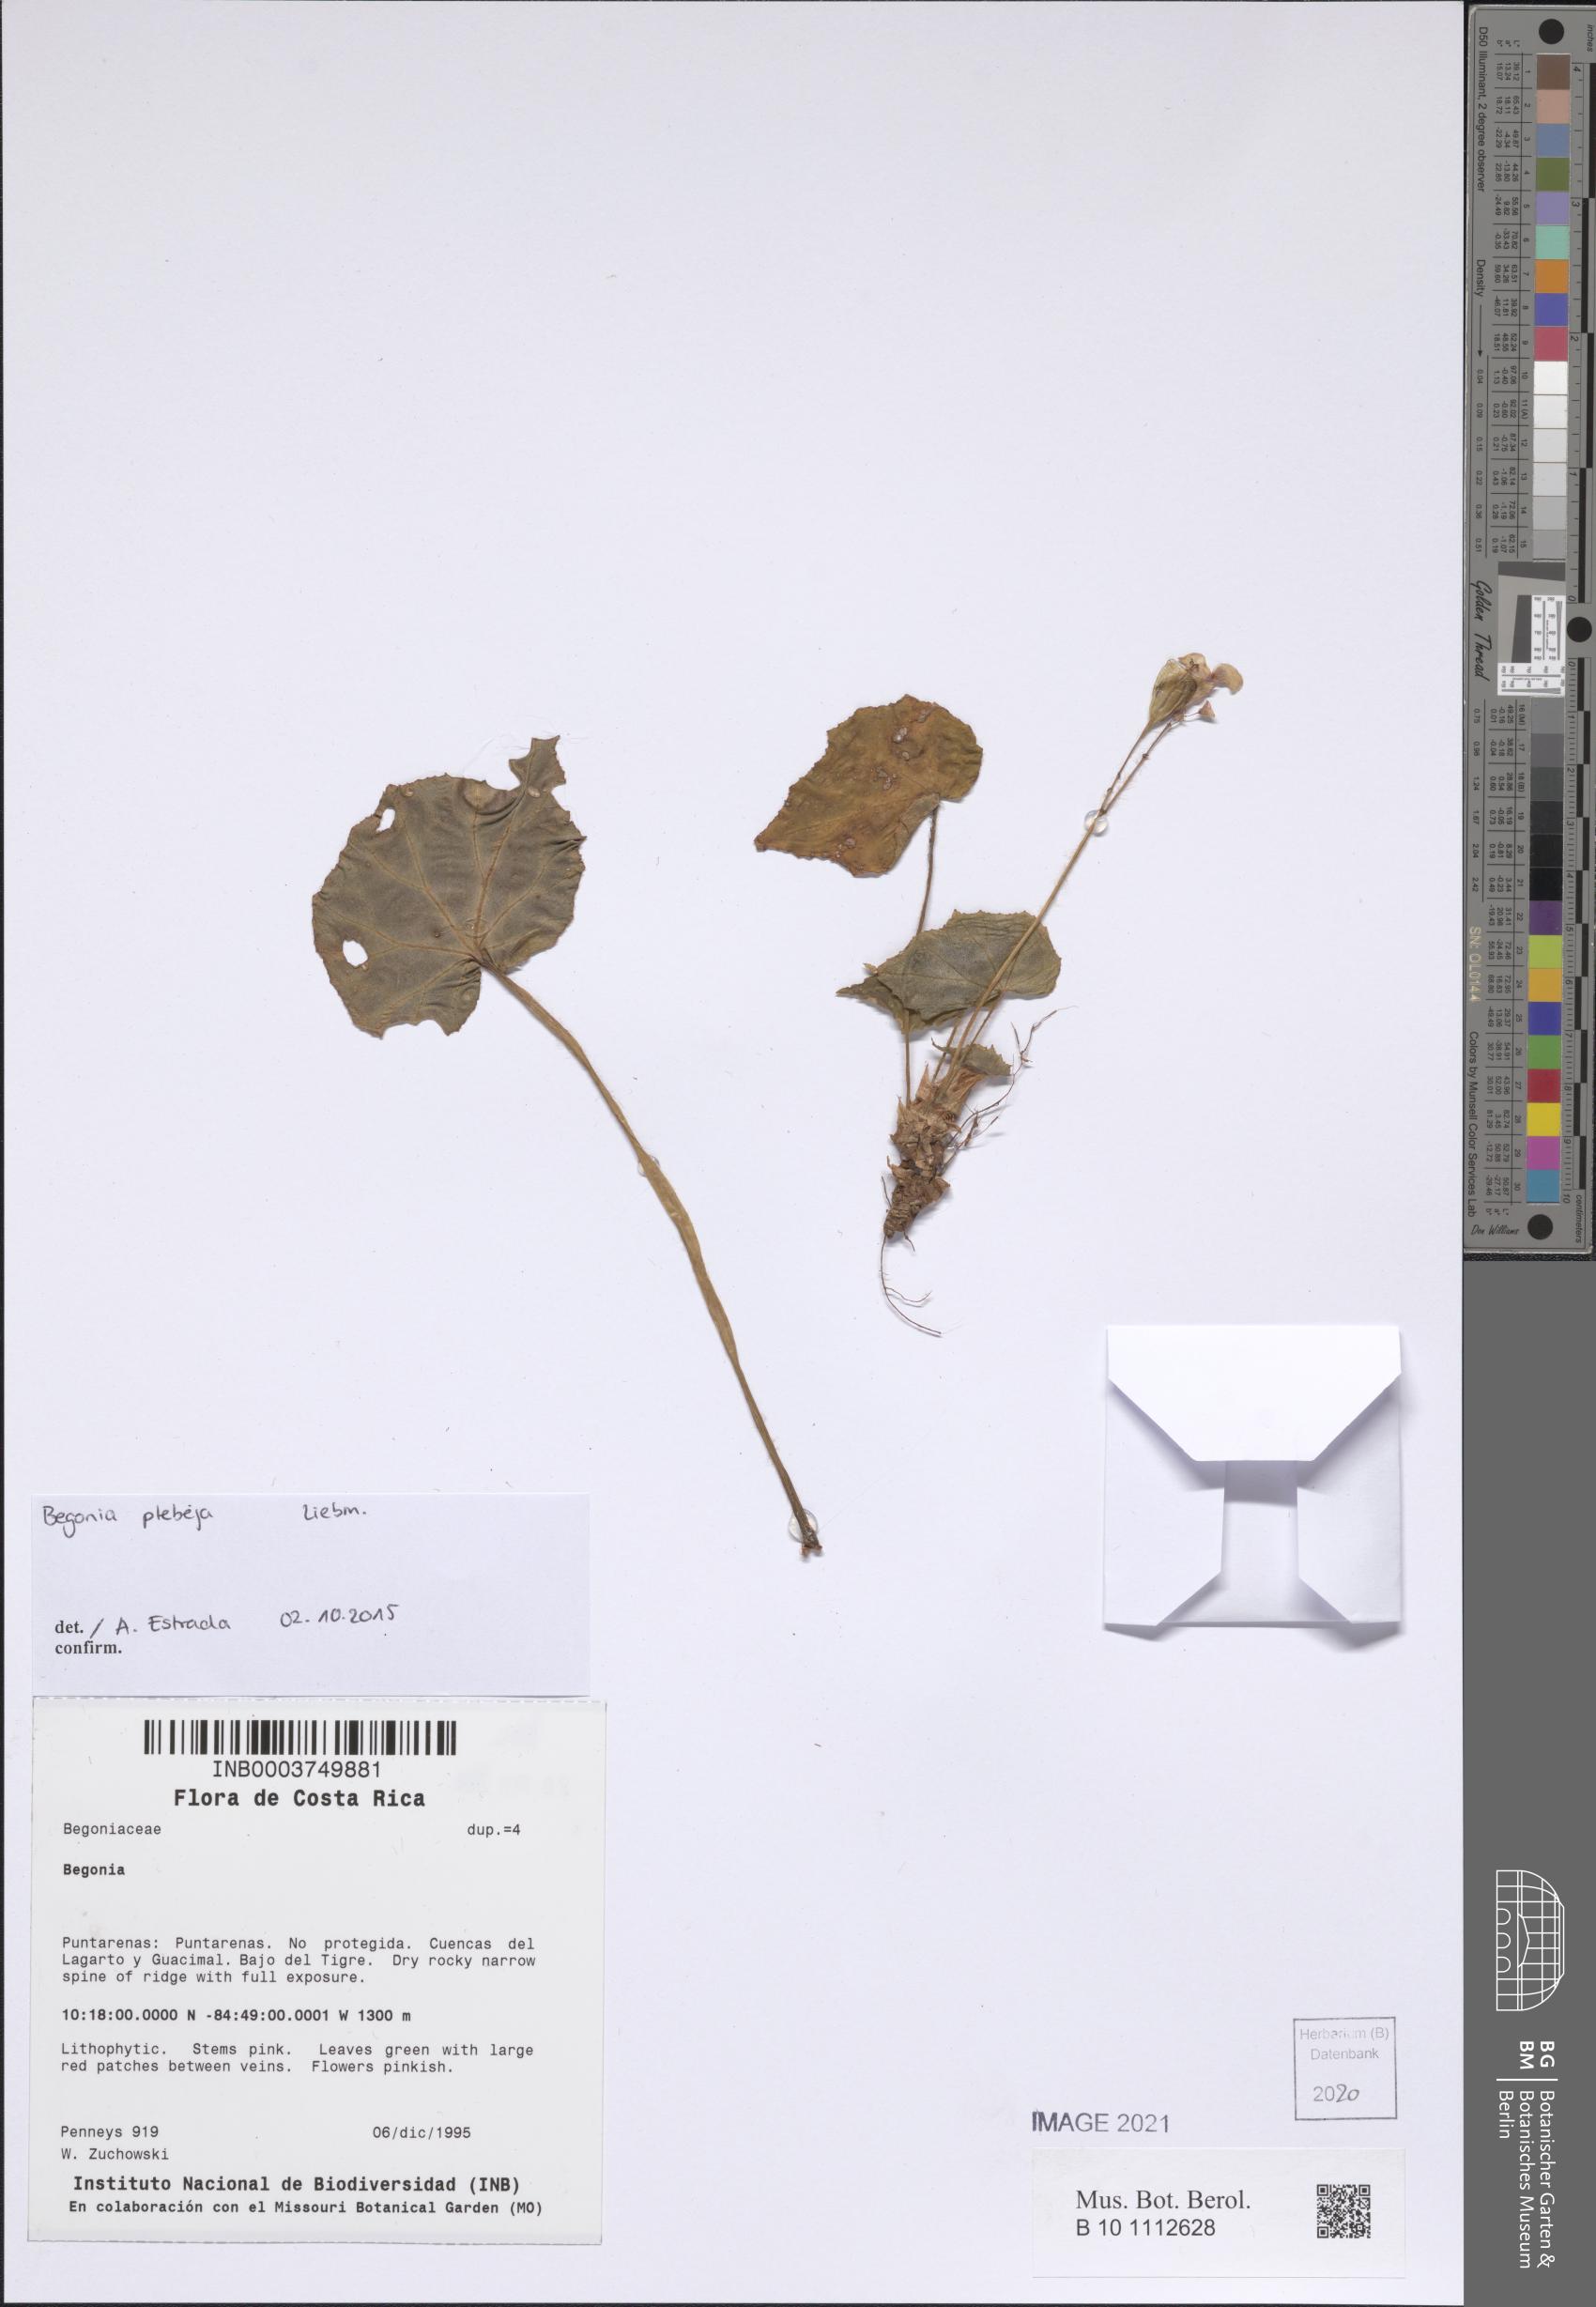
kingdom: Plantae
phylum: Tracheophyta
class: Magnoliopsida
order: Cucurbitales
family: Begoniaceae
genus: Begonia
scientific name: Begonia
